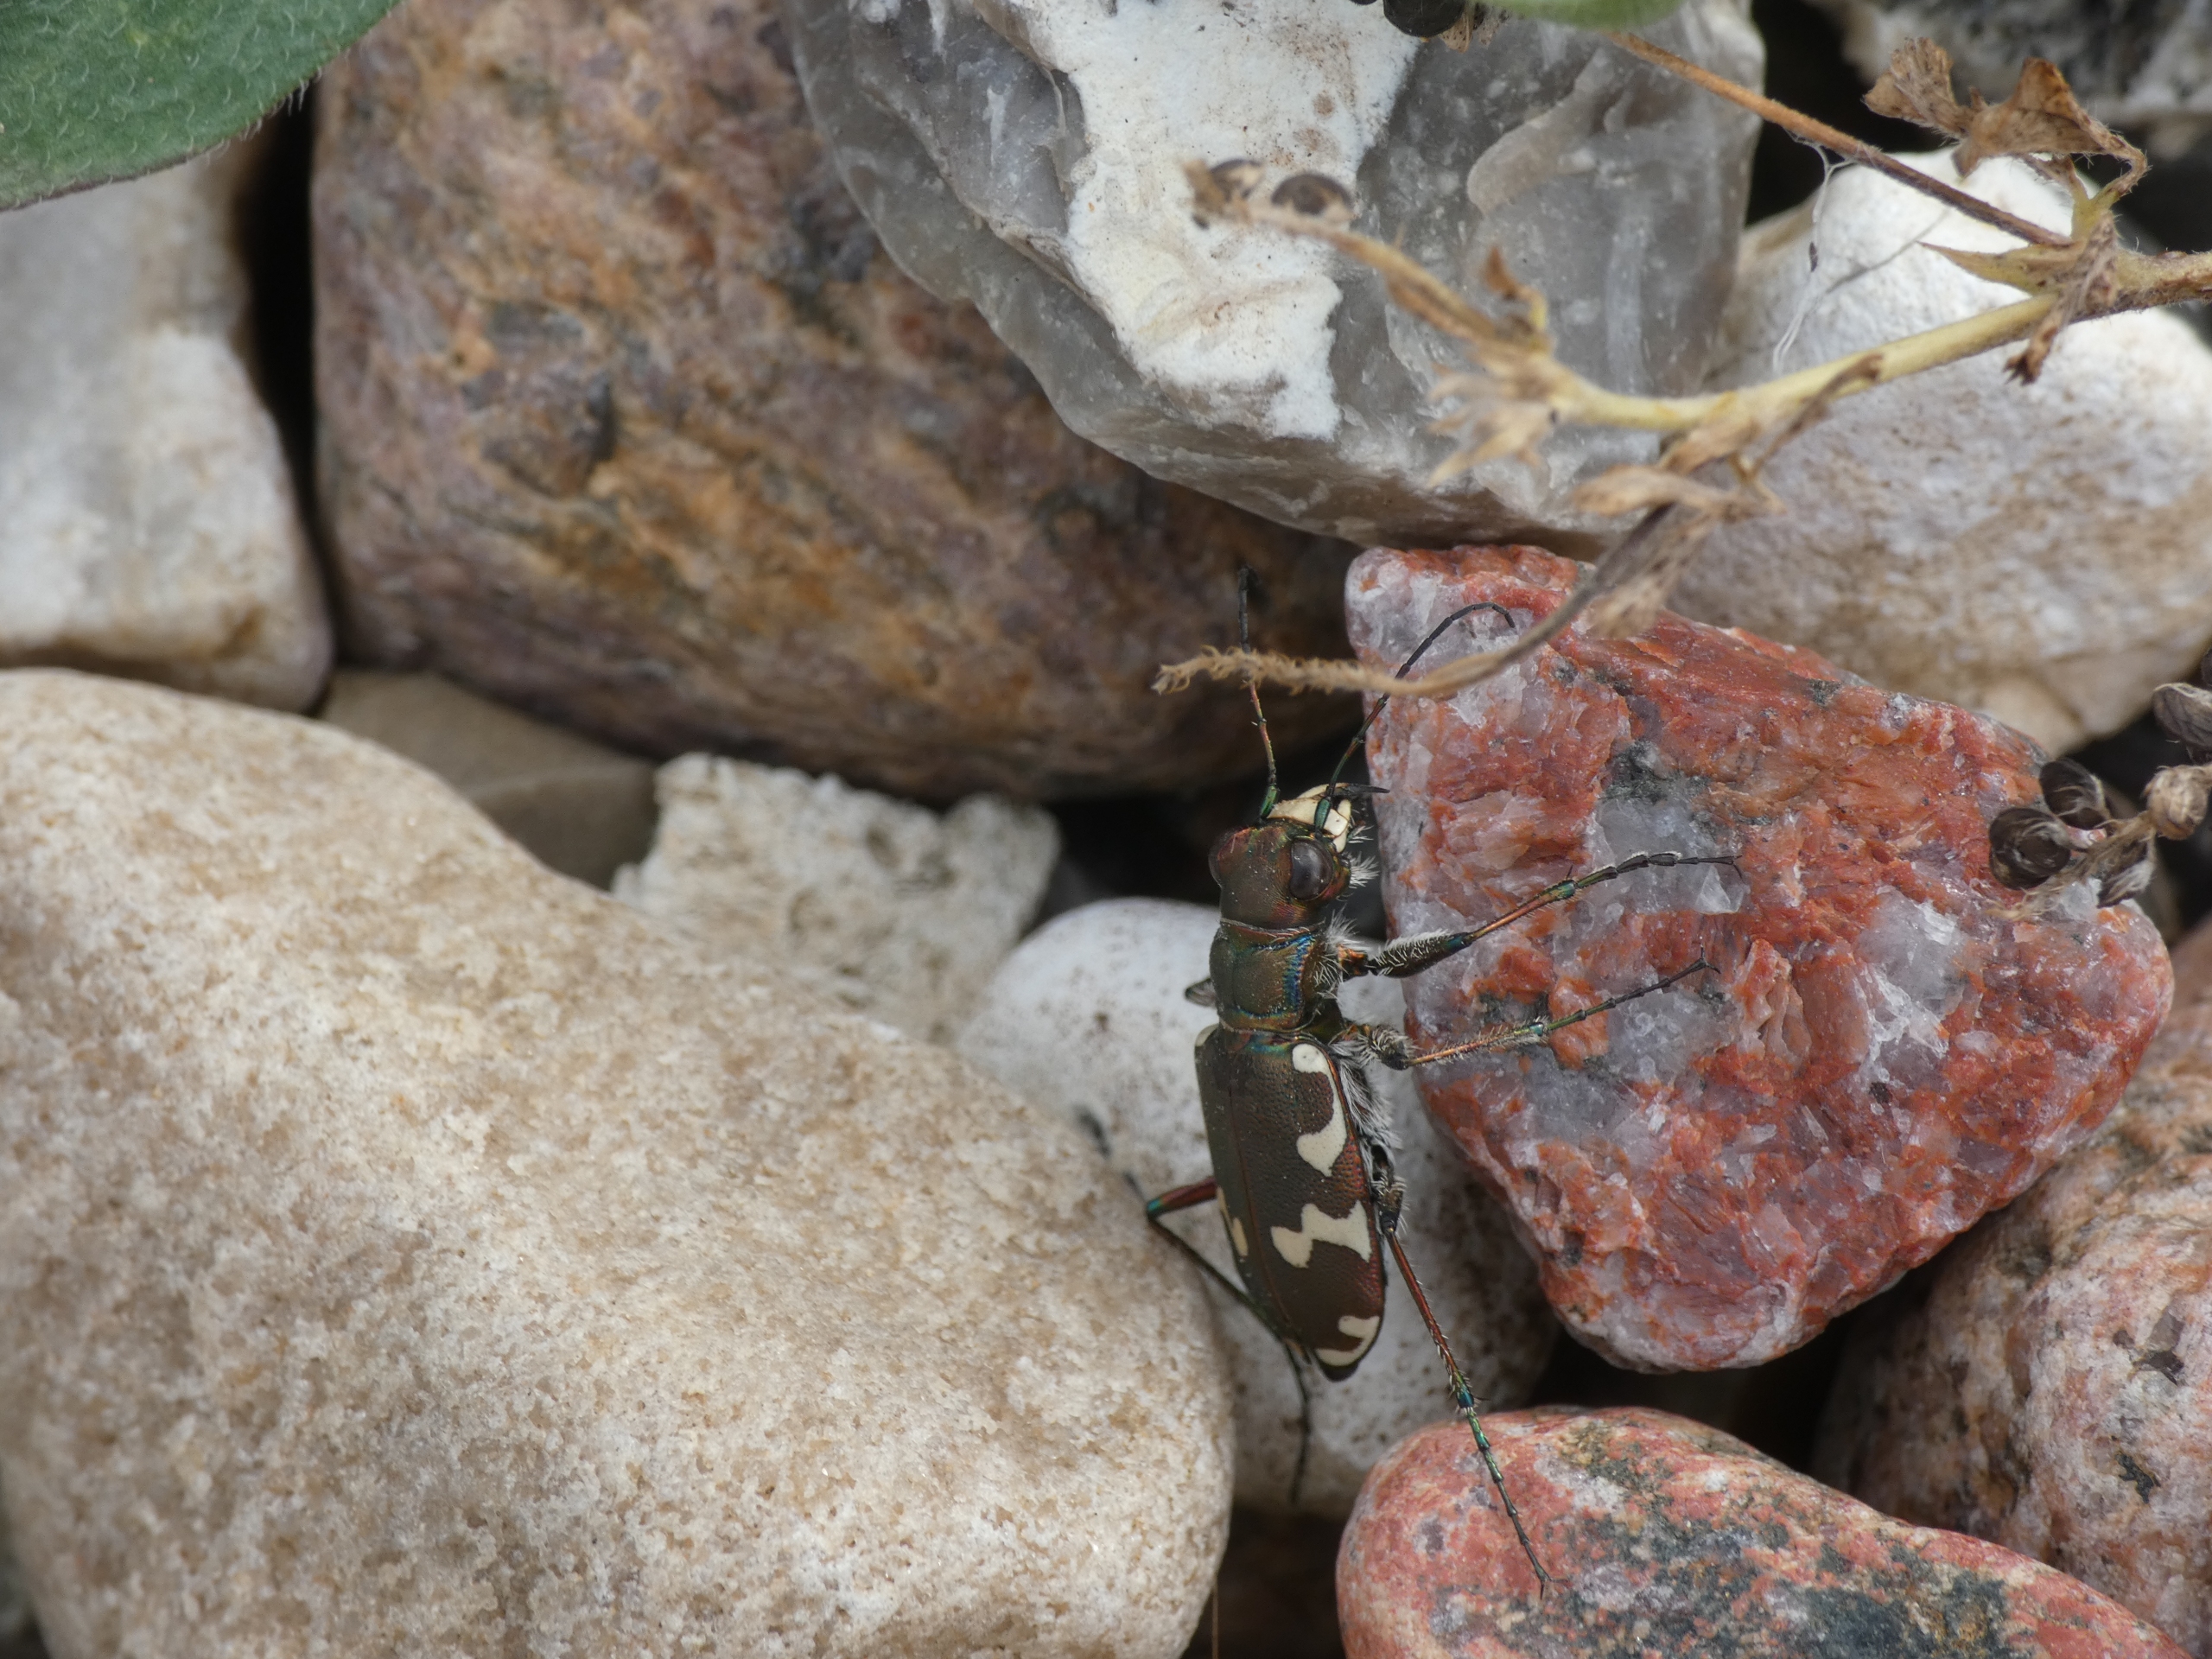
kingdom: Animalia
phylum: Arthropoda
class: Insecta
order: Coleoptera
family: Carabidae
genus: Cicindela
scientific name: Cicindela hybrida
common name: Brun sandspringer
